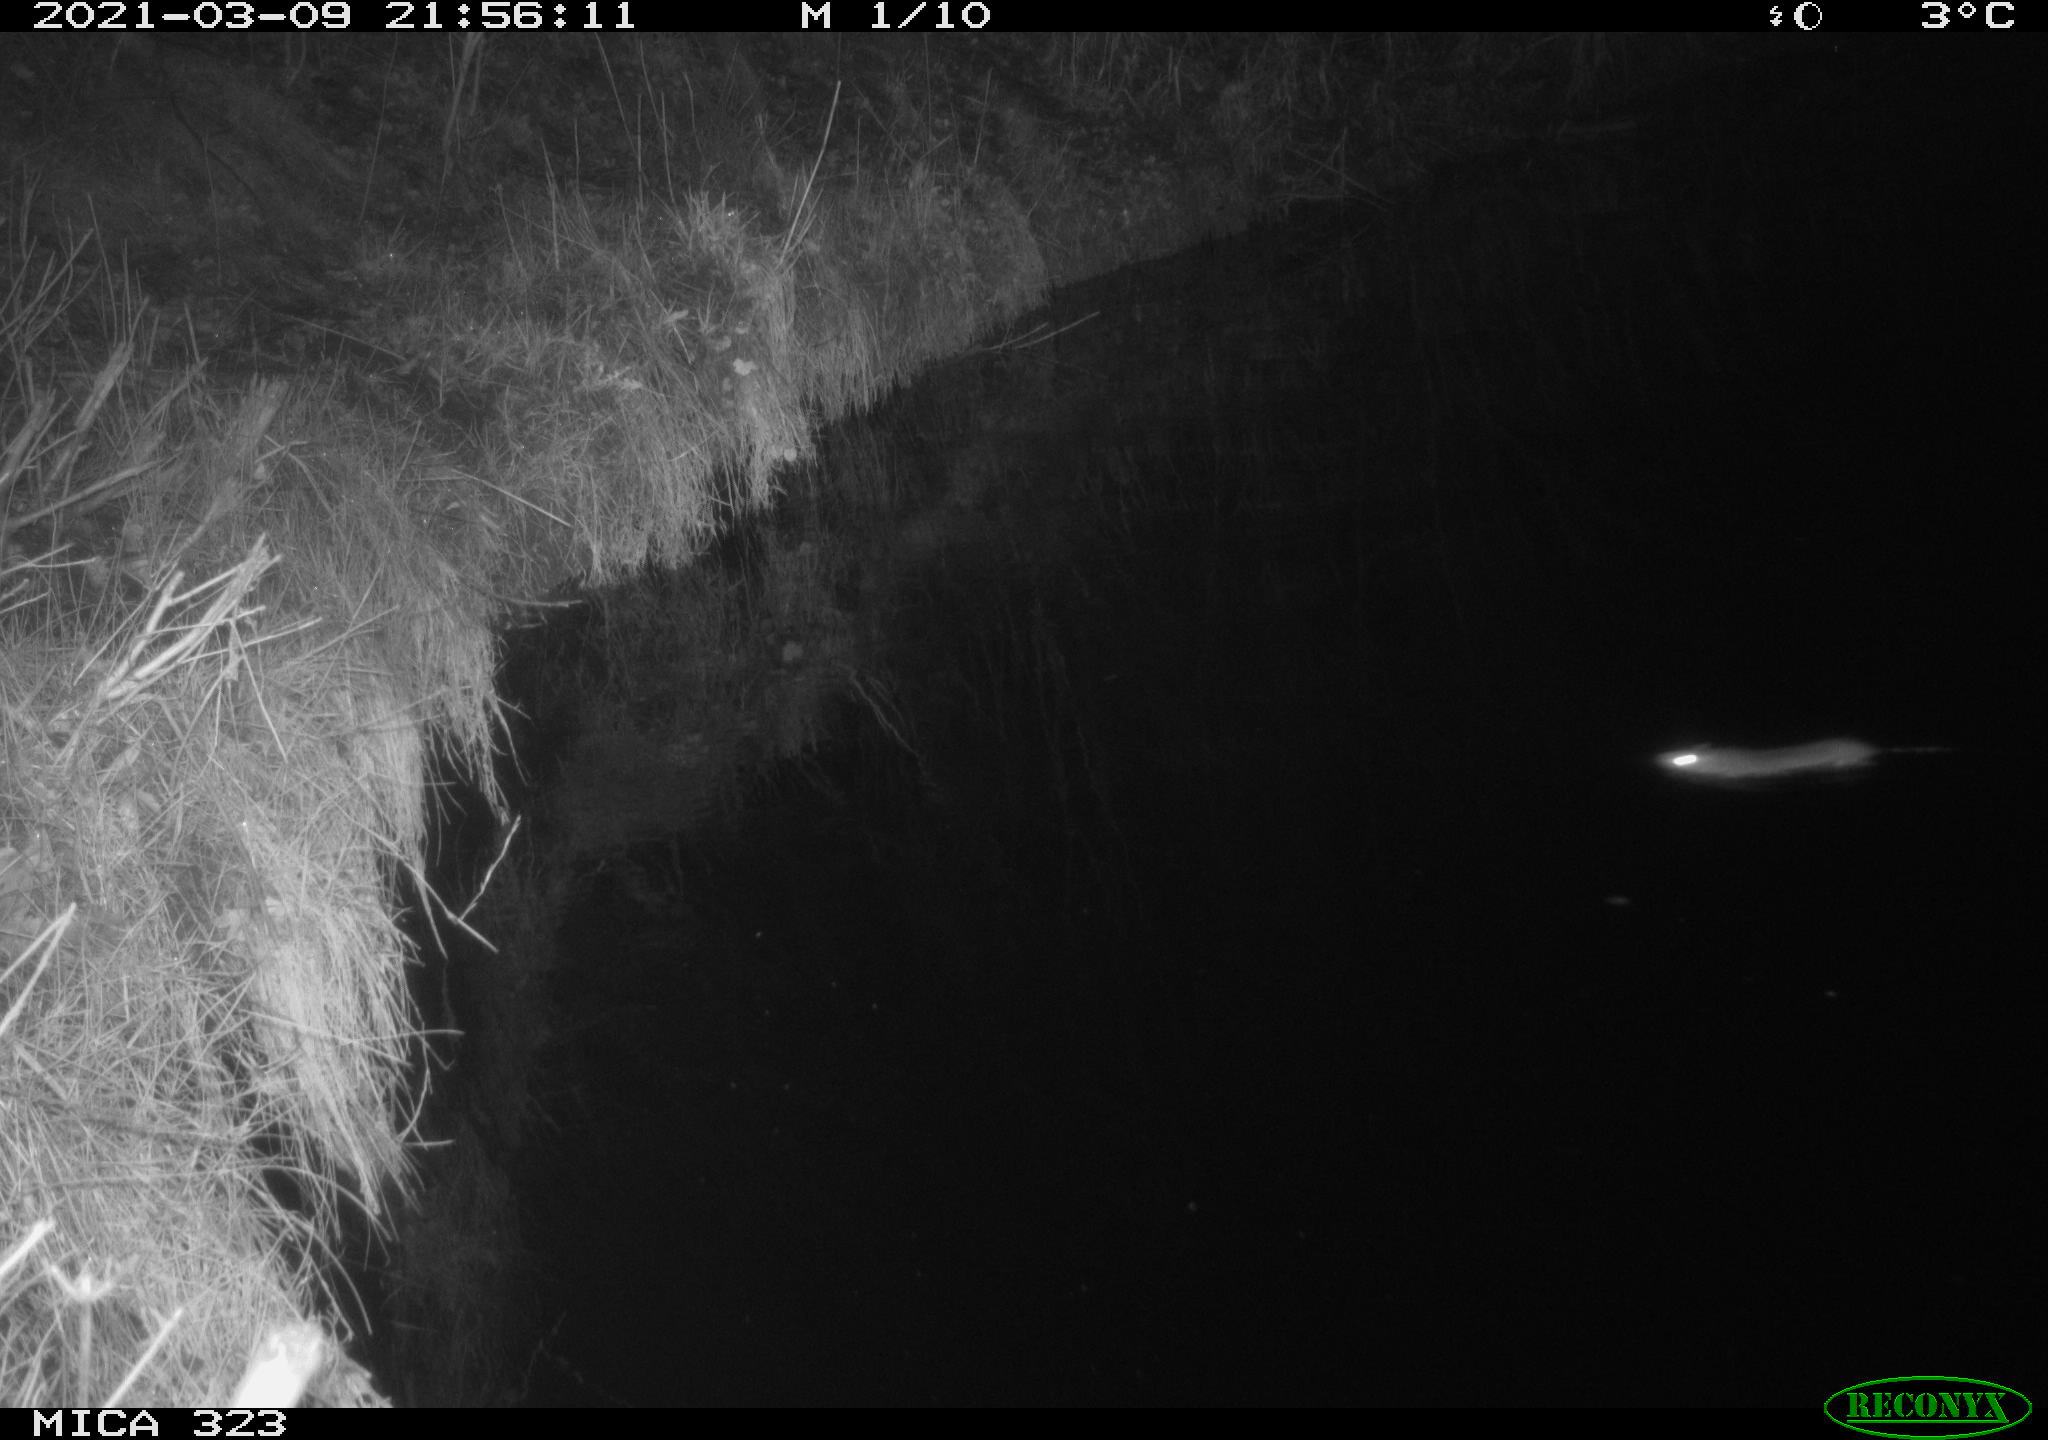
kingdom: Animalia
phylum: Chordata
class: Mammalia
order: Rodentia
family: Muridae
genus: Rattus
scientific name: Rattus norvegicus
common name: Brown rat
